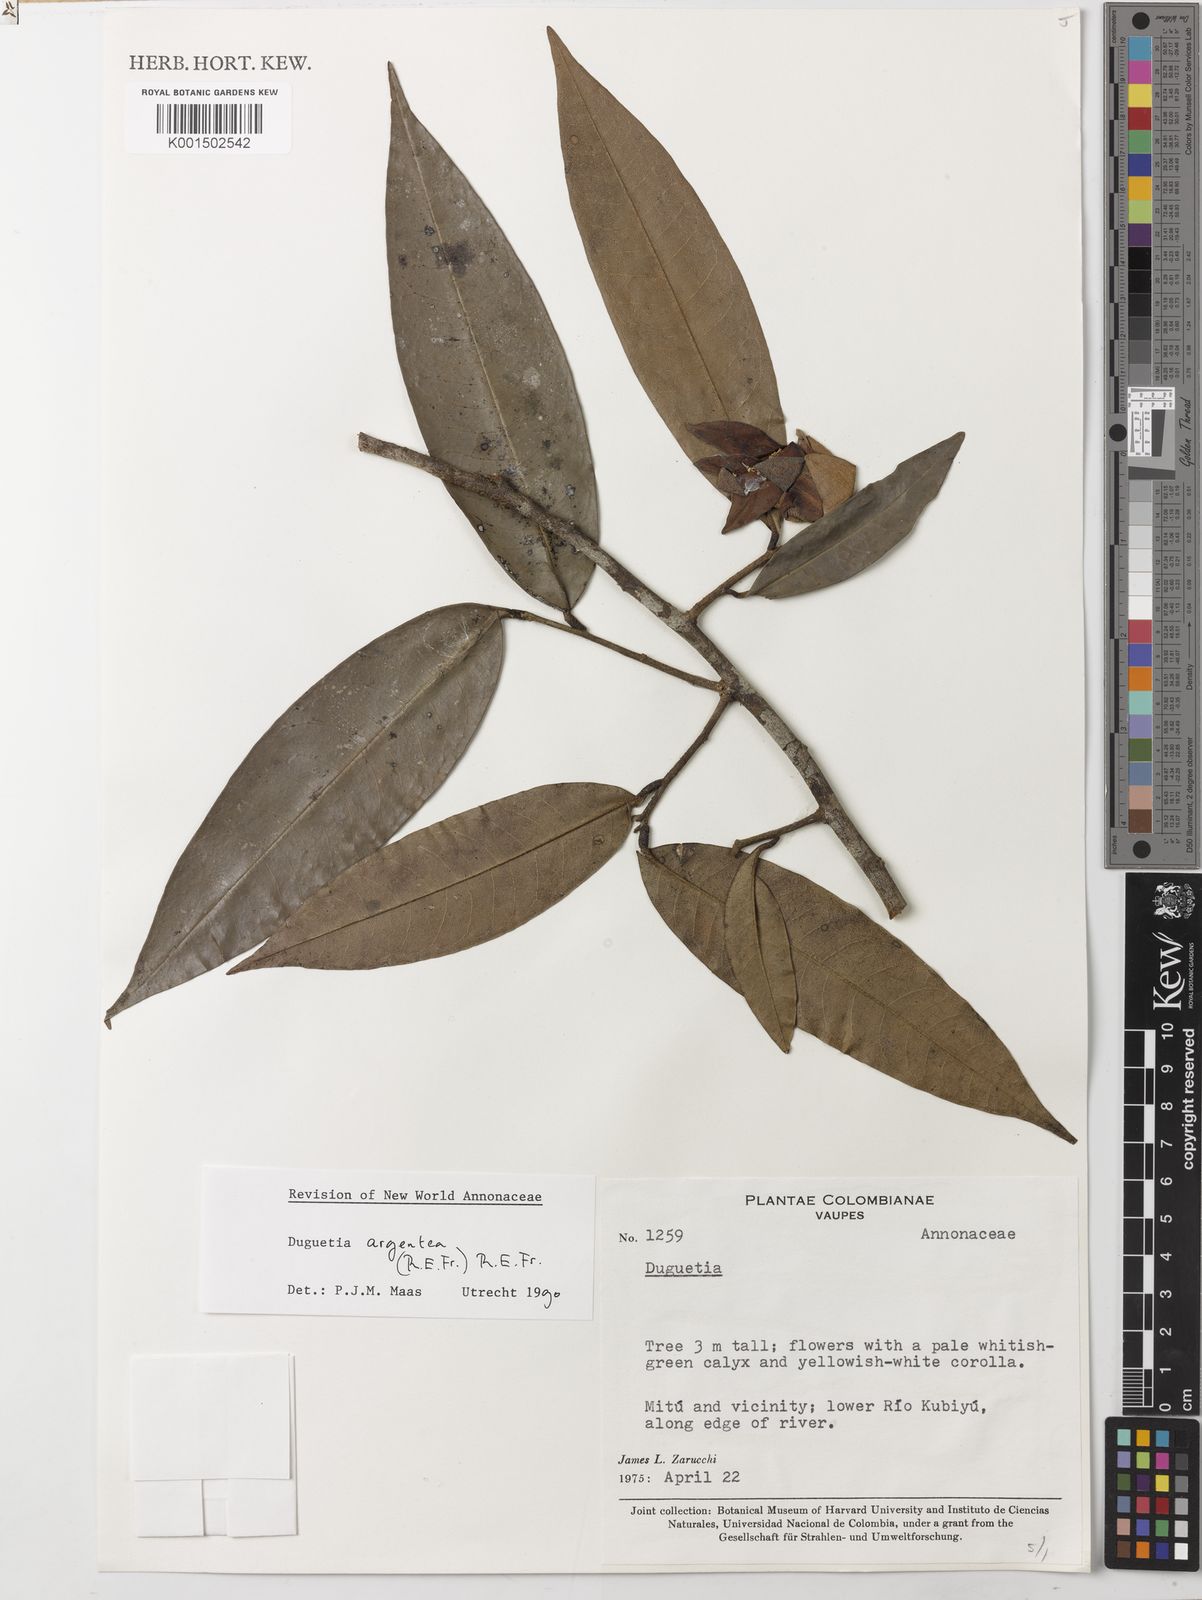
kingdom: Plantae
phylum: Tracheophyta
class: Magnoliopsida
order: Magnoliales
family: Annonaceae
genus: Duguetia
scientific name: Duguetia argentea
